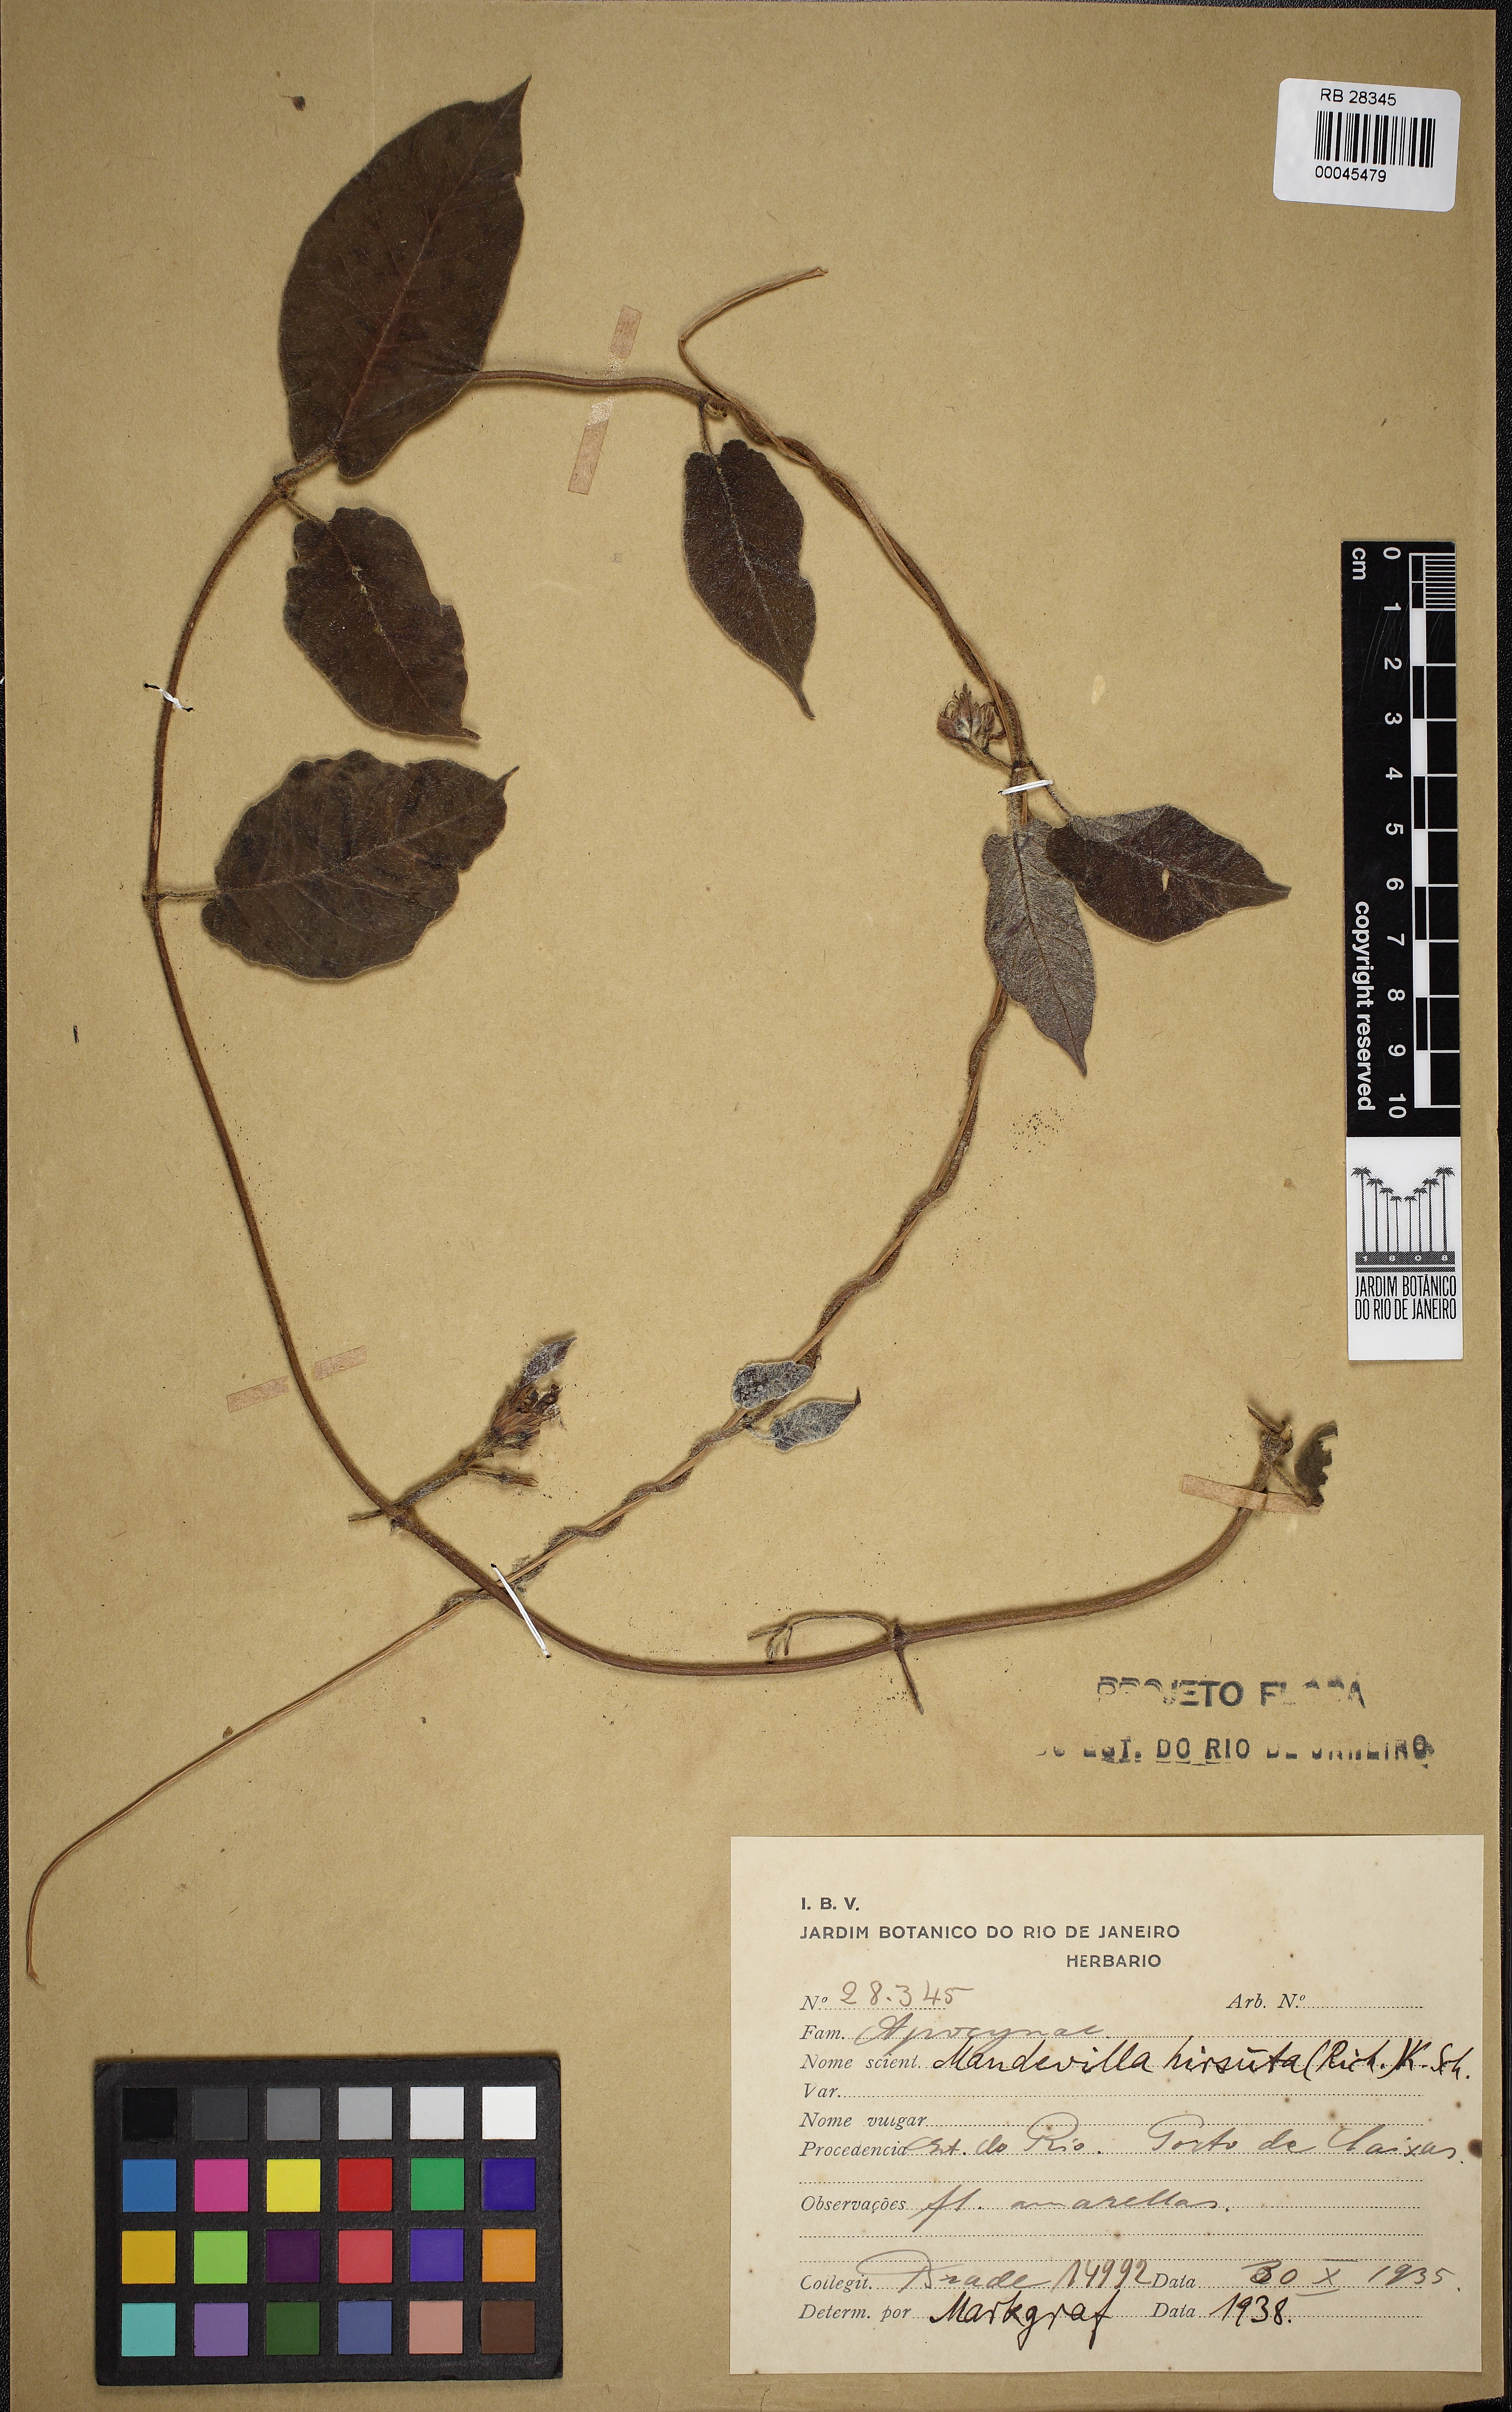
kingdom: Plantae
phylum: Tracheophyta
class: Magnoliopsida
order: Gentianales
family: Apocynaceae
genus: Mandevilla
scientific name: Mandevilla hirsuta
